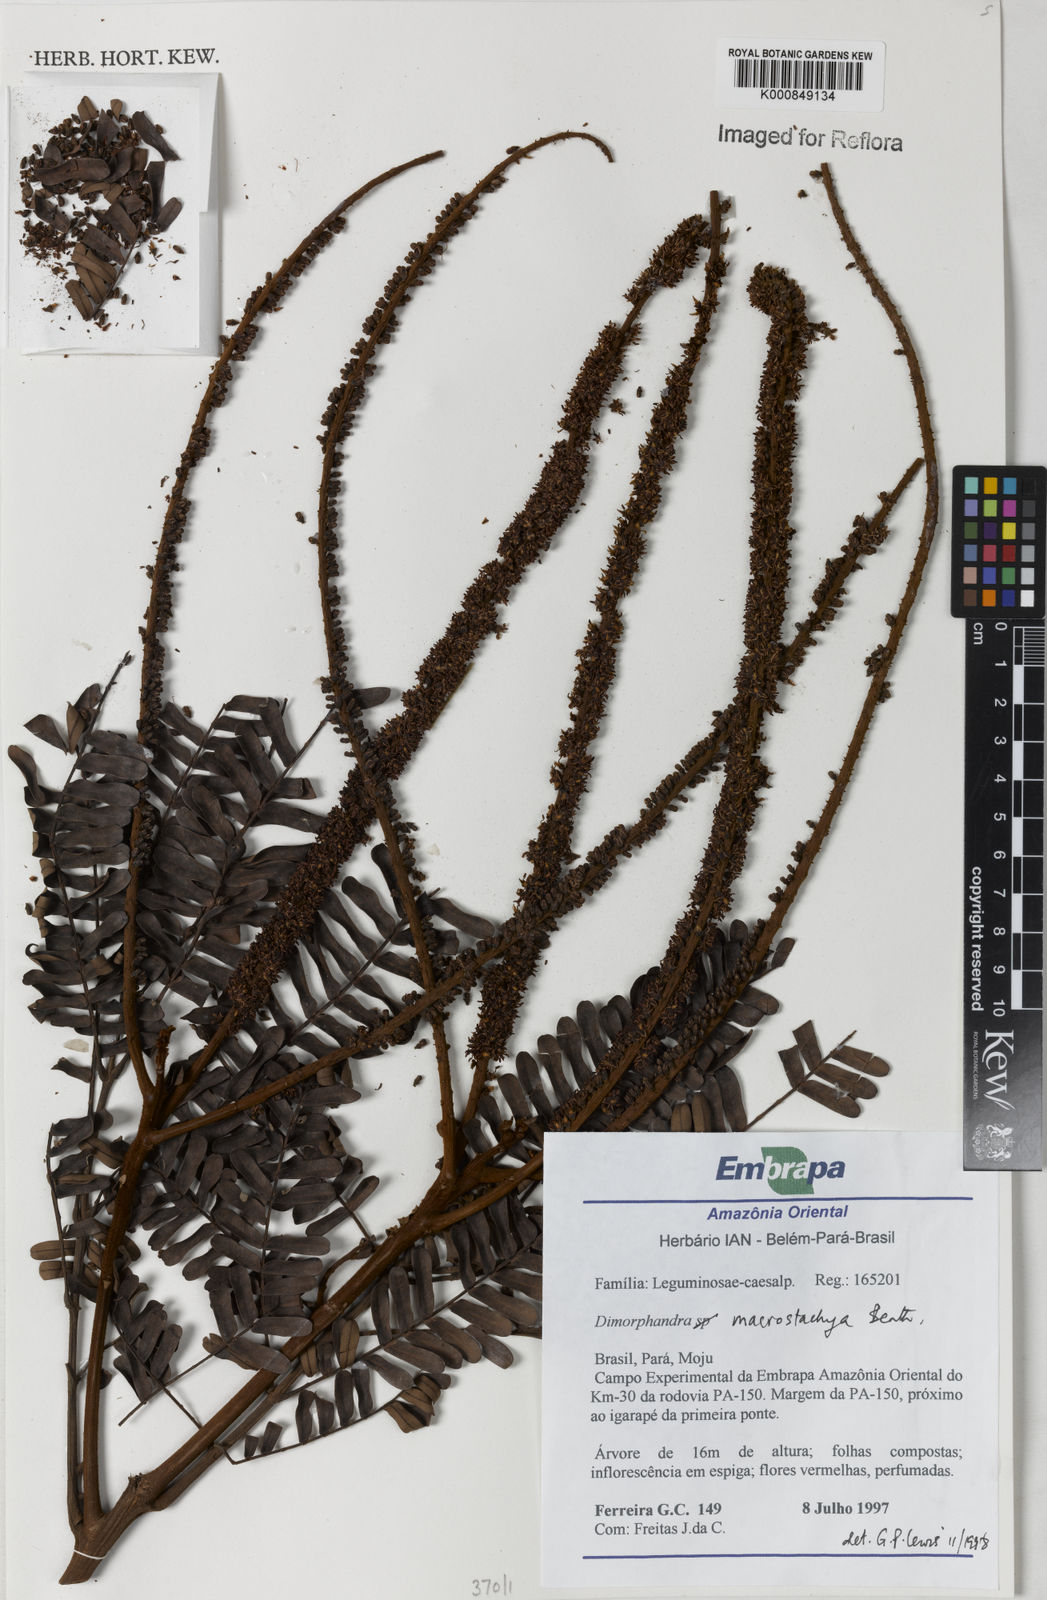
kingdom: Plantae
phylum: Tracheophyta
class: Magnoliopsida
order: Fabales
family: Fabaceae
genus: Dimorphandra
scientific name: Dimorphandra macrostachya
